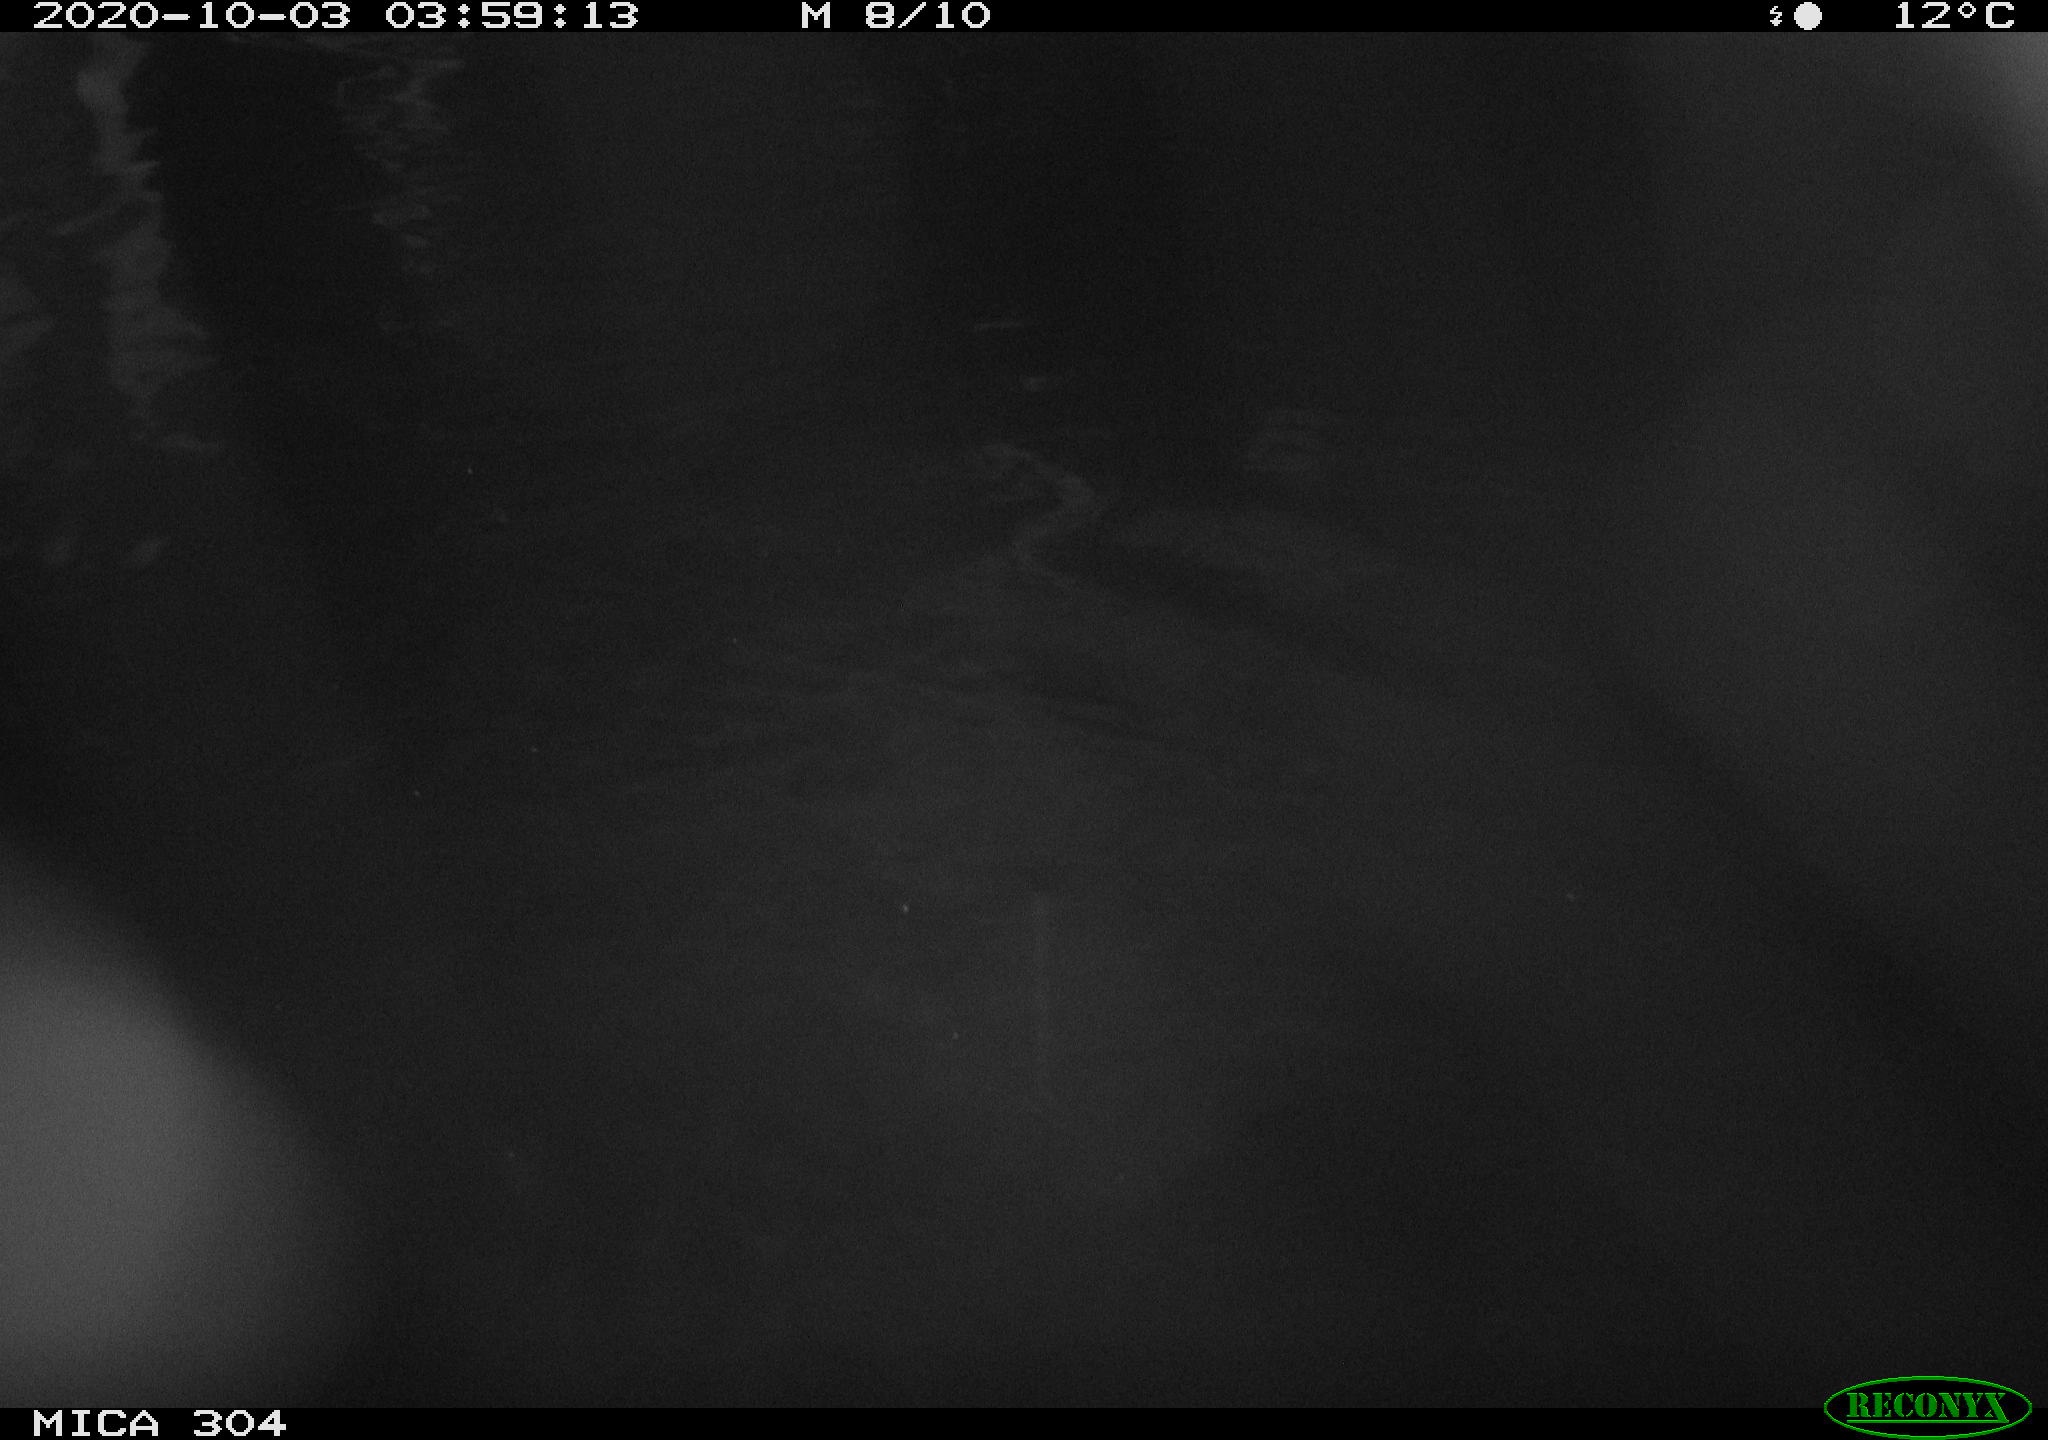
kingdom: Animalia
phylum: Chordata
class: Mammalia
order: Rodentia
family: Cricetidae
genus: Ondatra
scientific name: Ondatra zibethicus
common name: Muskrat
